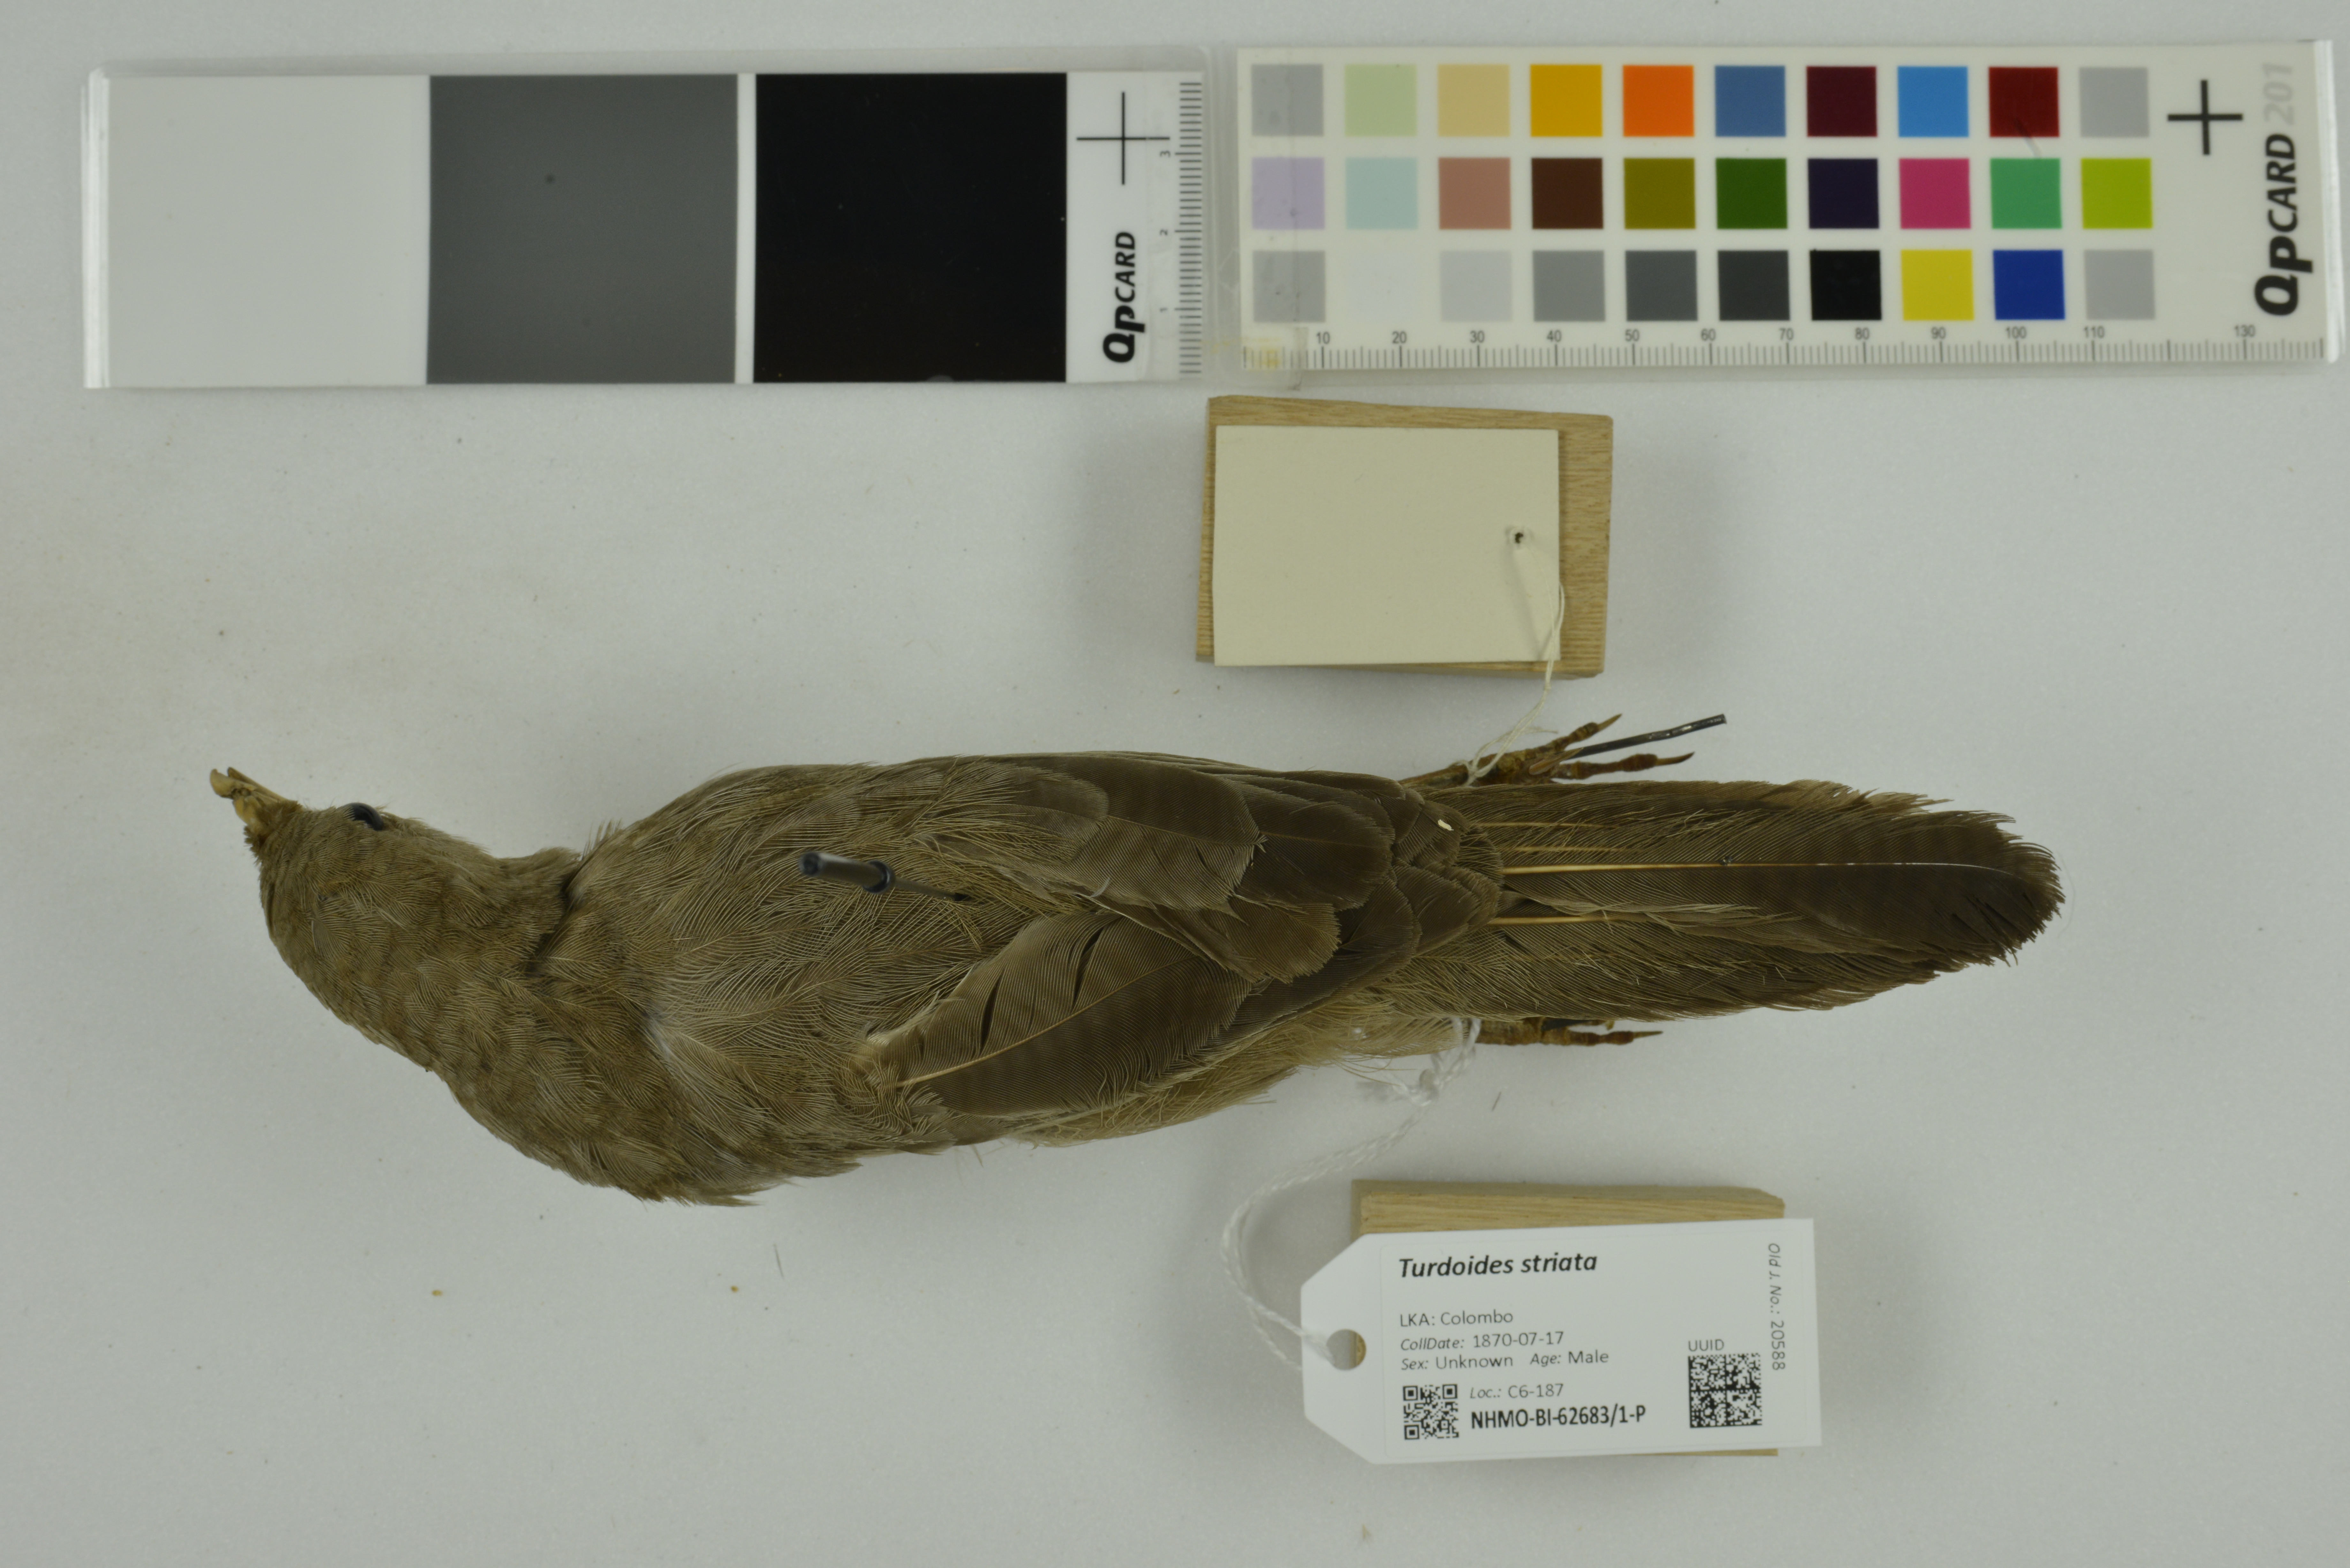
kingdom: Animalia
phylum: Chordata
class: Aves
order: Passeriformes
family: Leiothrichidae
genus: Turdoides
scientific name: Turdoides striata
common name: Jungle babbler
